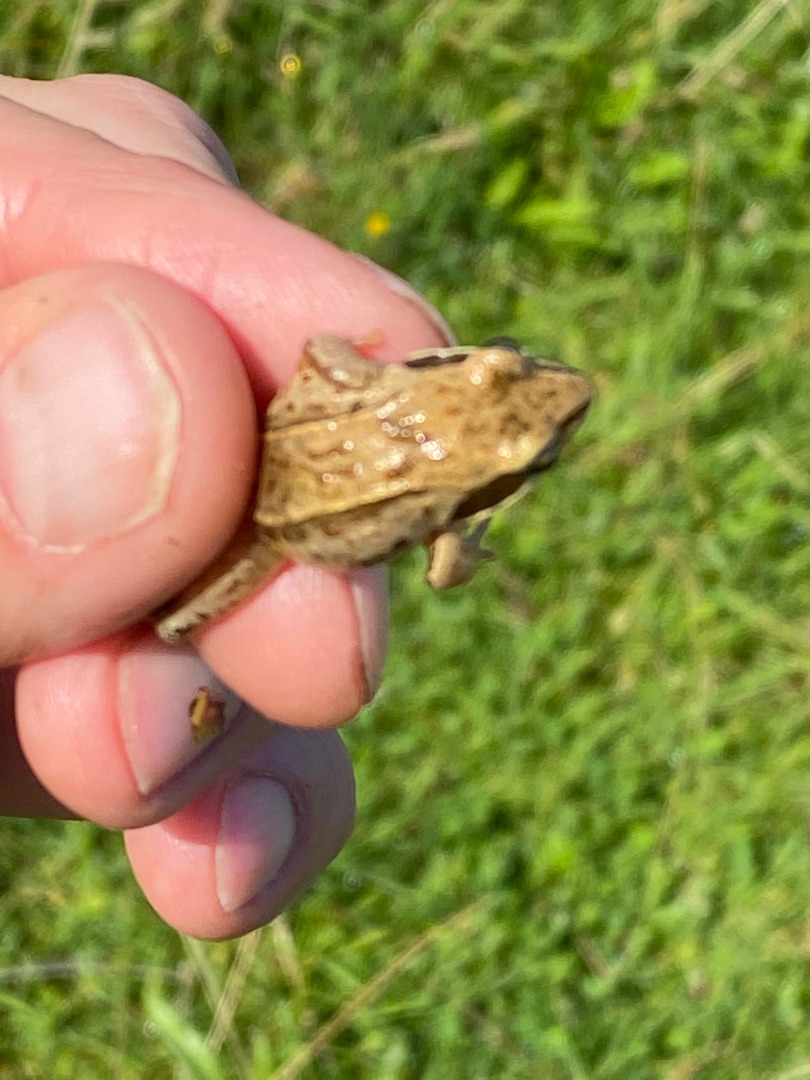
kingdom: Animalia
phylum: Chordata
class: Amphibia
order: Anura
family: Ranidae
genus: Rana
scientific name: Rana arvalis
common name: Spidssnudet frø
